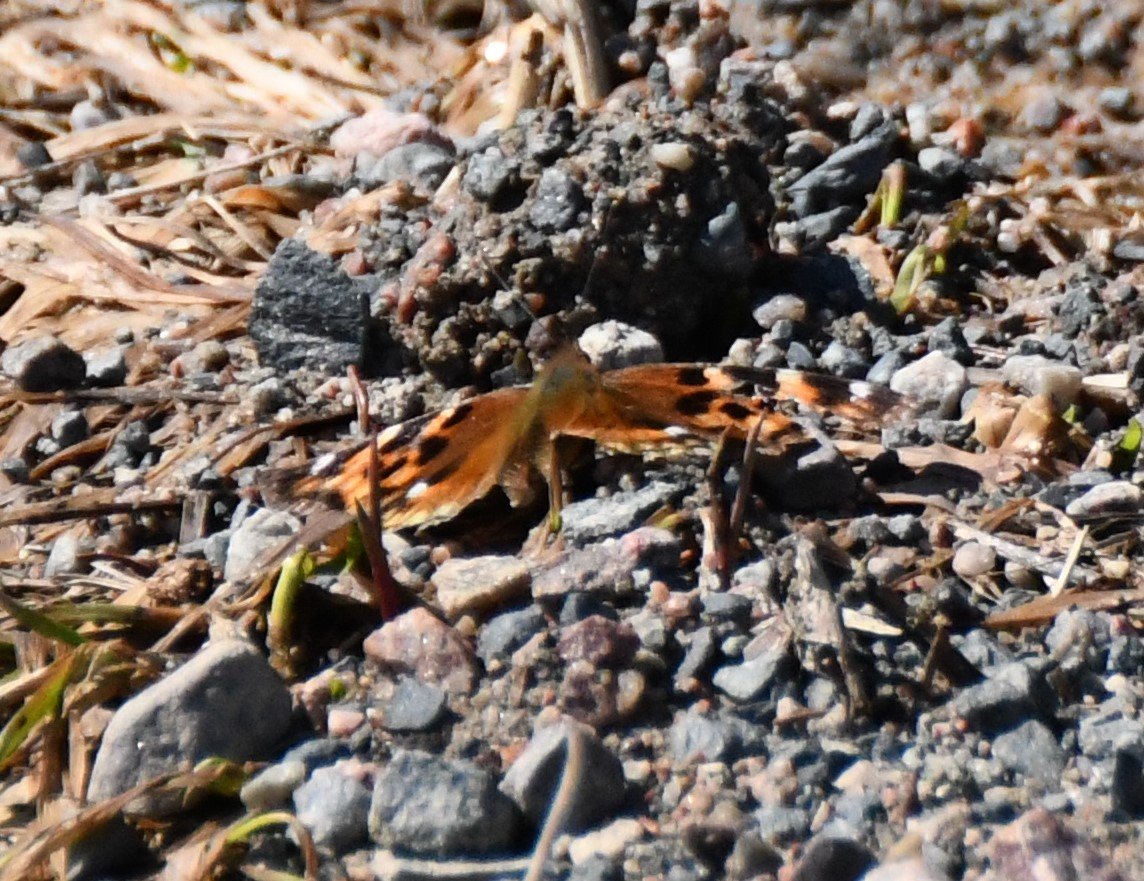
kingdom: Animalia
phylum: Arthropoda
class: Insecta
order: Lepidoptera
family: Nymphalidae
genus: Polygonia
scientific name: Polygonia vaualbum
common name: Compton Tortoiseshell
